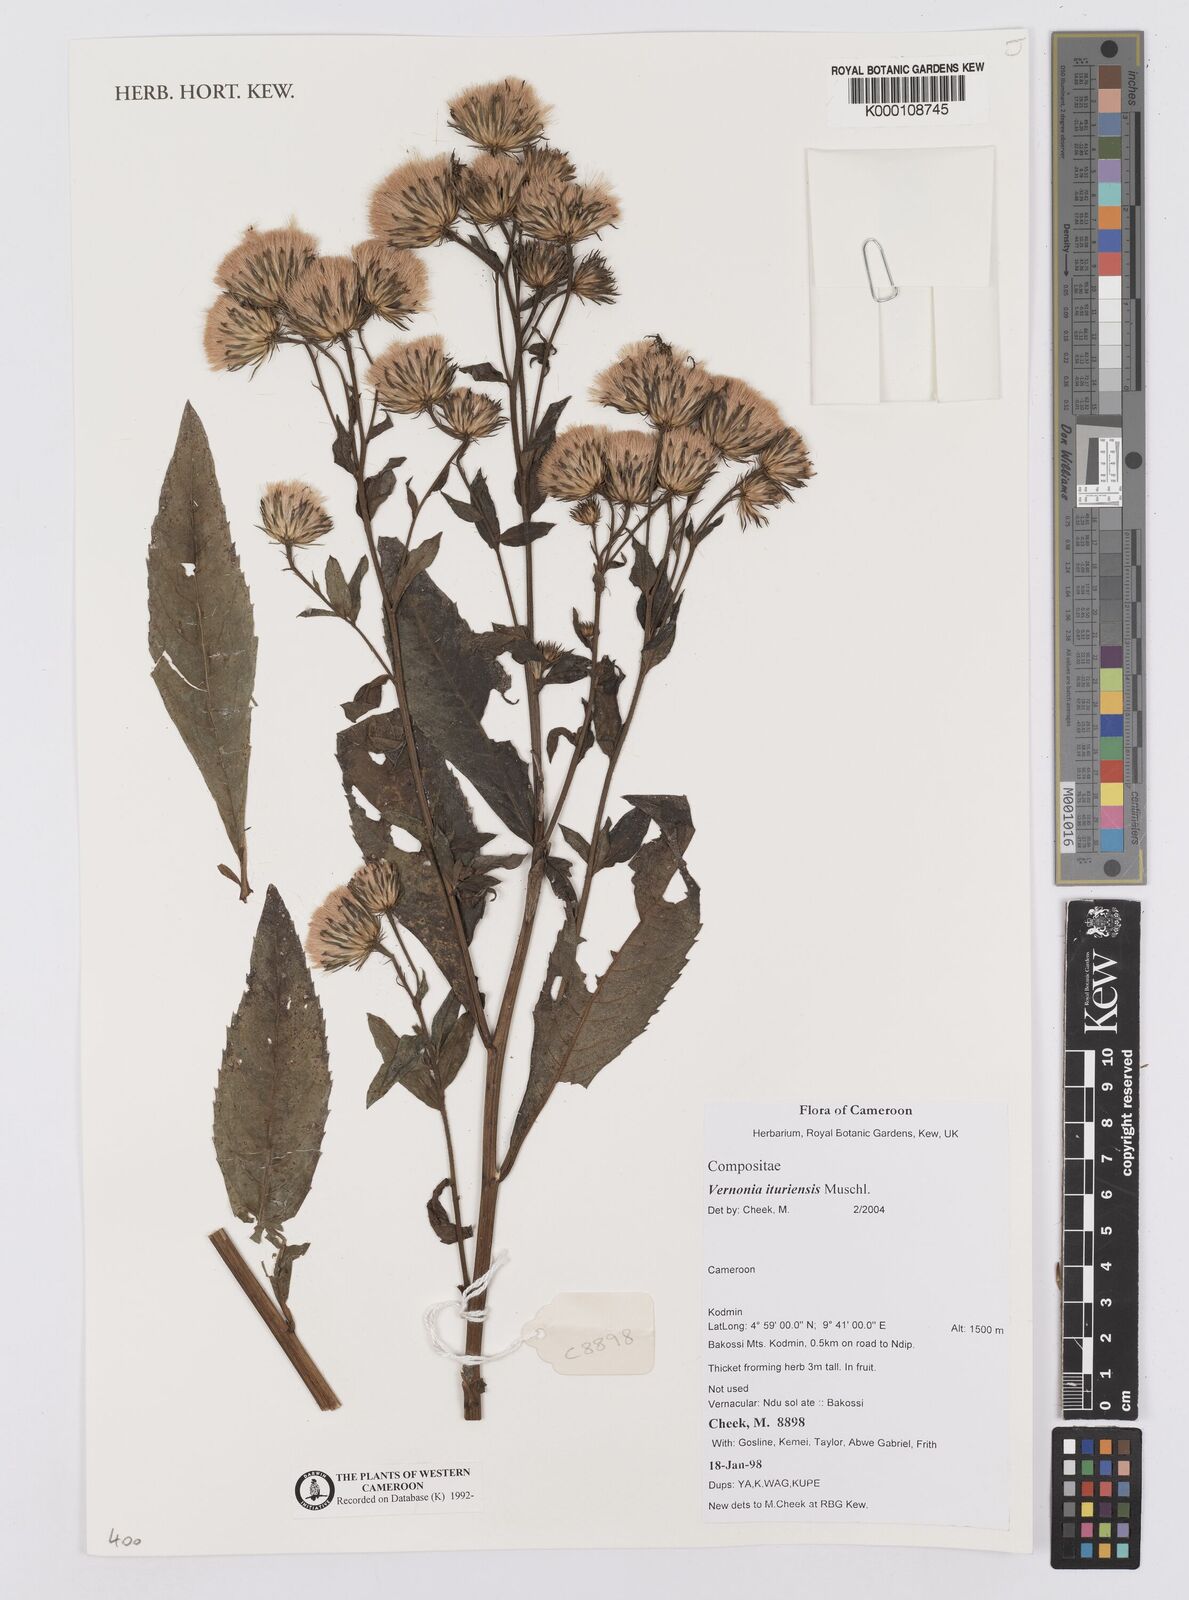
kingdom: Plantae
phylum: Tracheophyta
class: Magnoliopsida
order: Asterales
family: Asteraceae
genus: Linzia
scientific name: Linzia ituriensis
